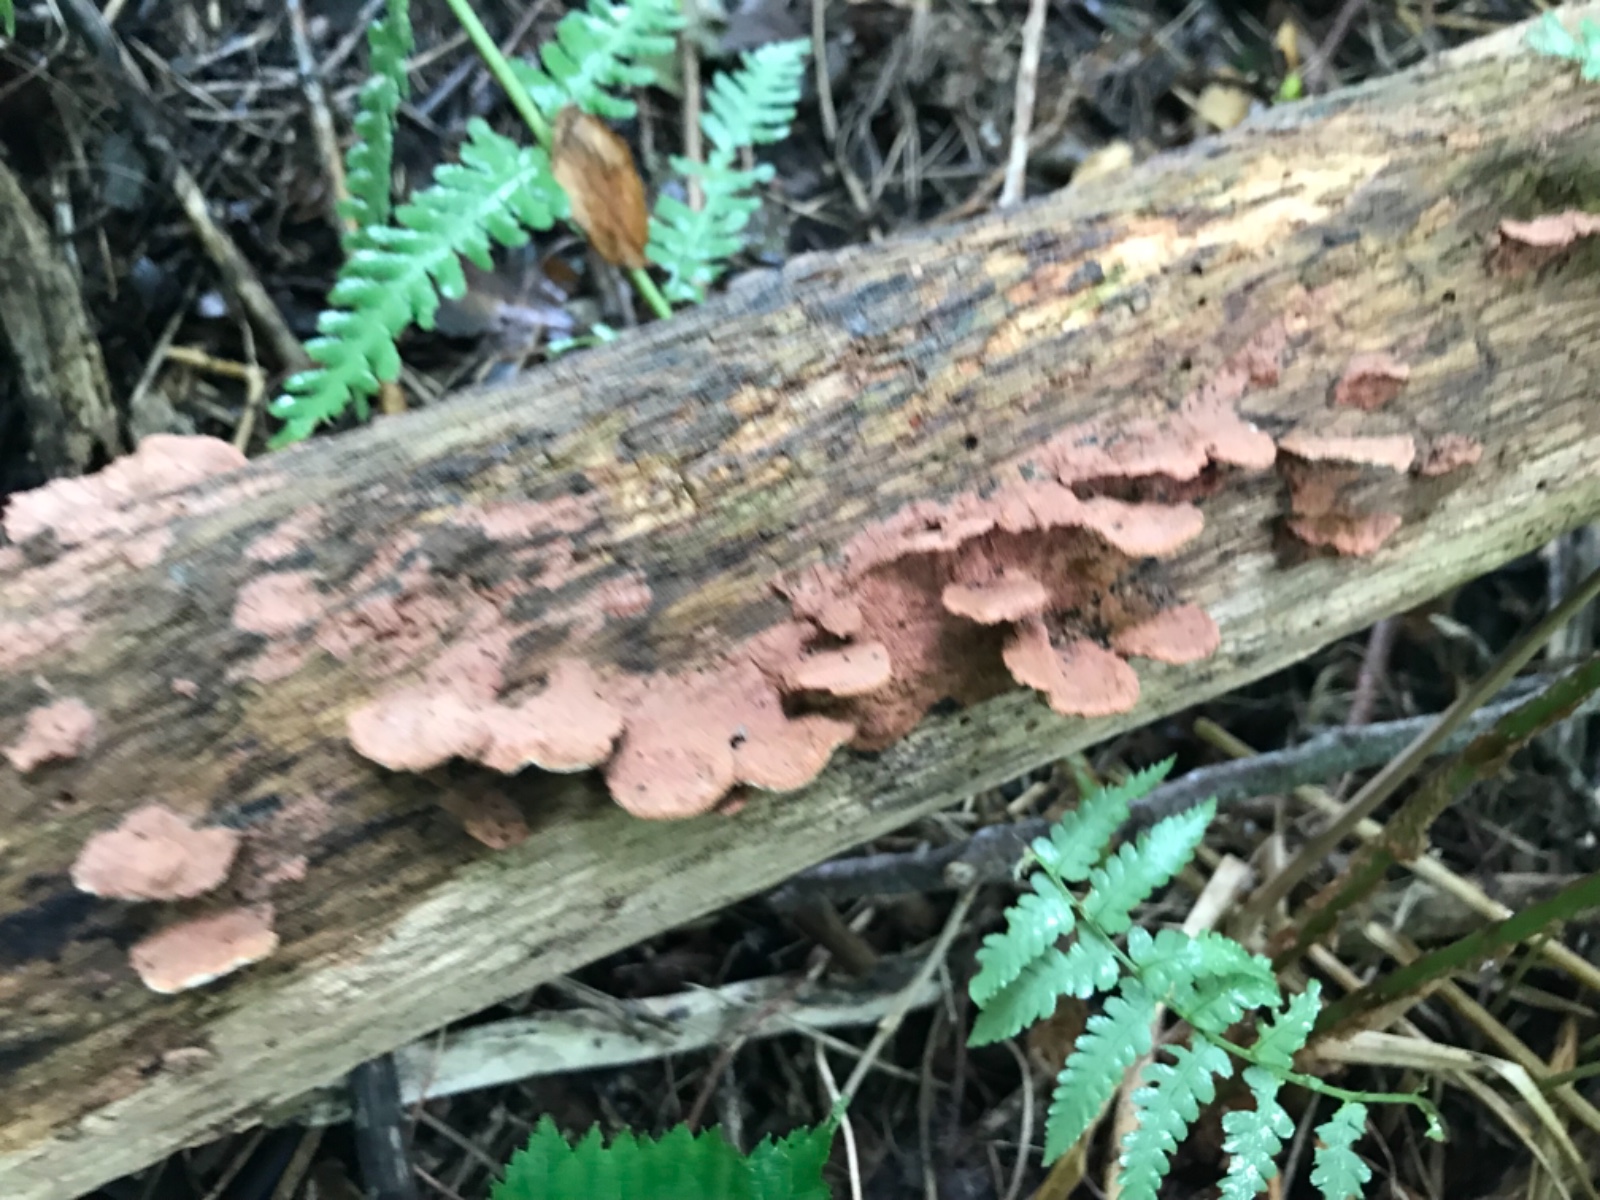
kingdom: Fungi
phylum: Basidiomycota
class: Agaricomycetes
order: Polyporales
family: Phanerochaetaceae
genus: Hapalopilus
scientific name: Hapalopilus rutilans
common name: rødlig okkerporesvamp
